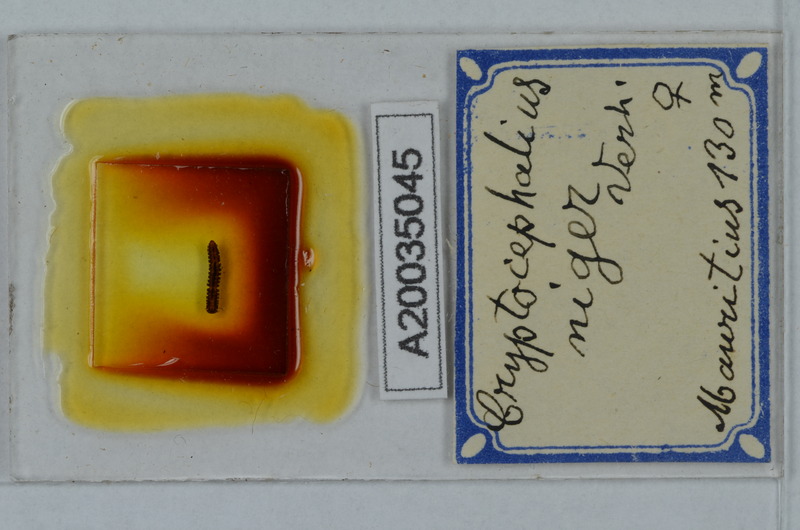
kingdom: Animalia
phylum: Arthropoda
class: Diplopoda
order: Polydesmida
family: Cryptodesmidae
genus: Cryptodesmus
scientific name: Cryptodesmus
